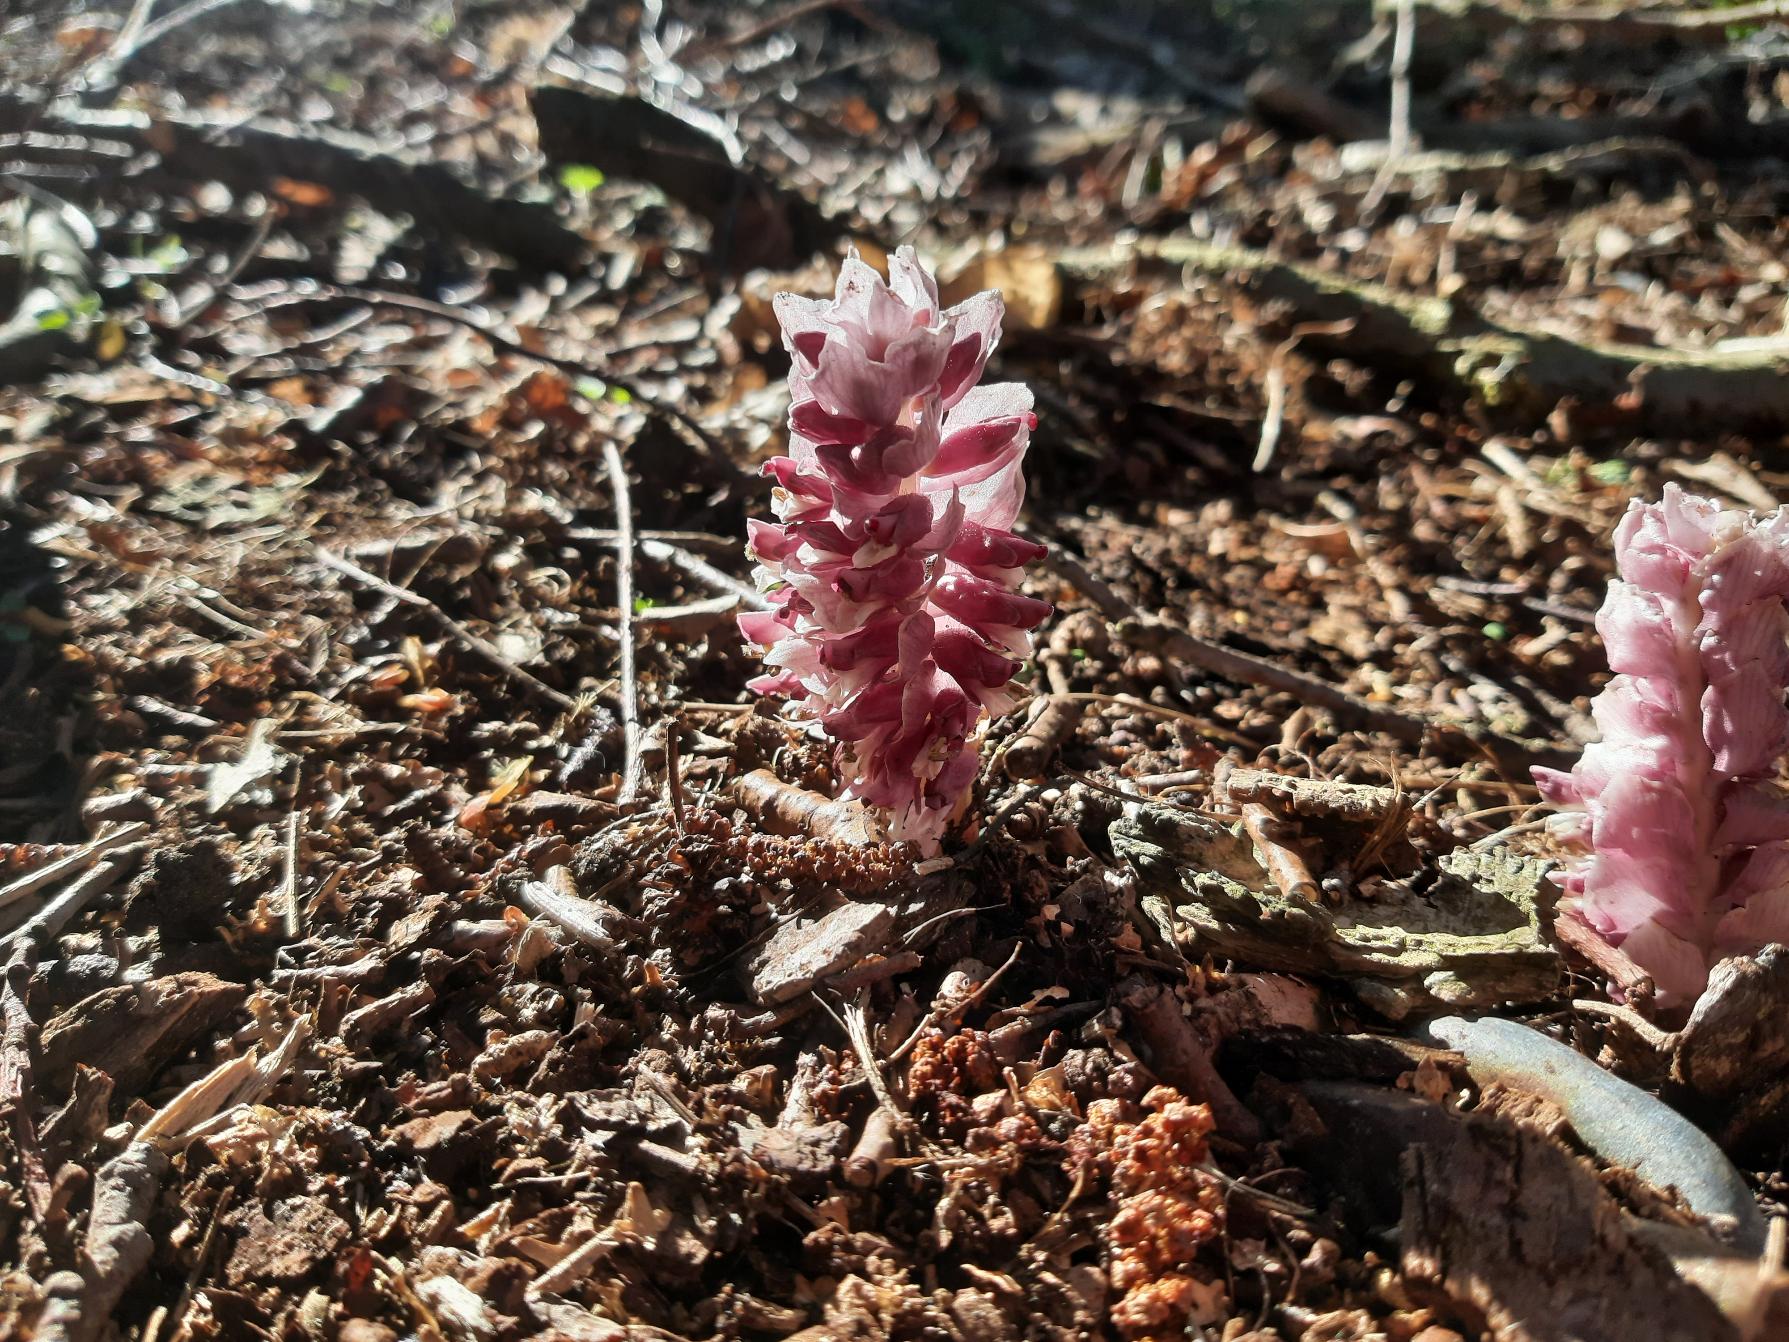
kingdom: Plantae
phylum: Tracheophyta
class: Magnoliopsida
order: Lamiales
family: Orobanchaceae
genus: Lathraea
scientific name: Lathraea squamaria
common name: Skælrod
